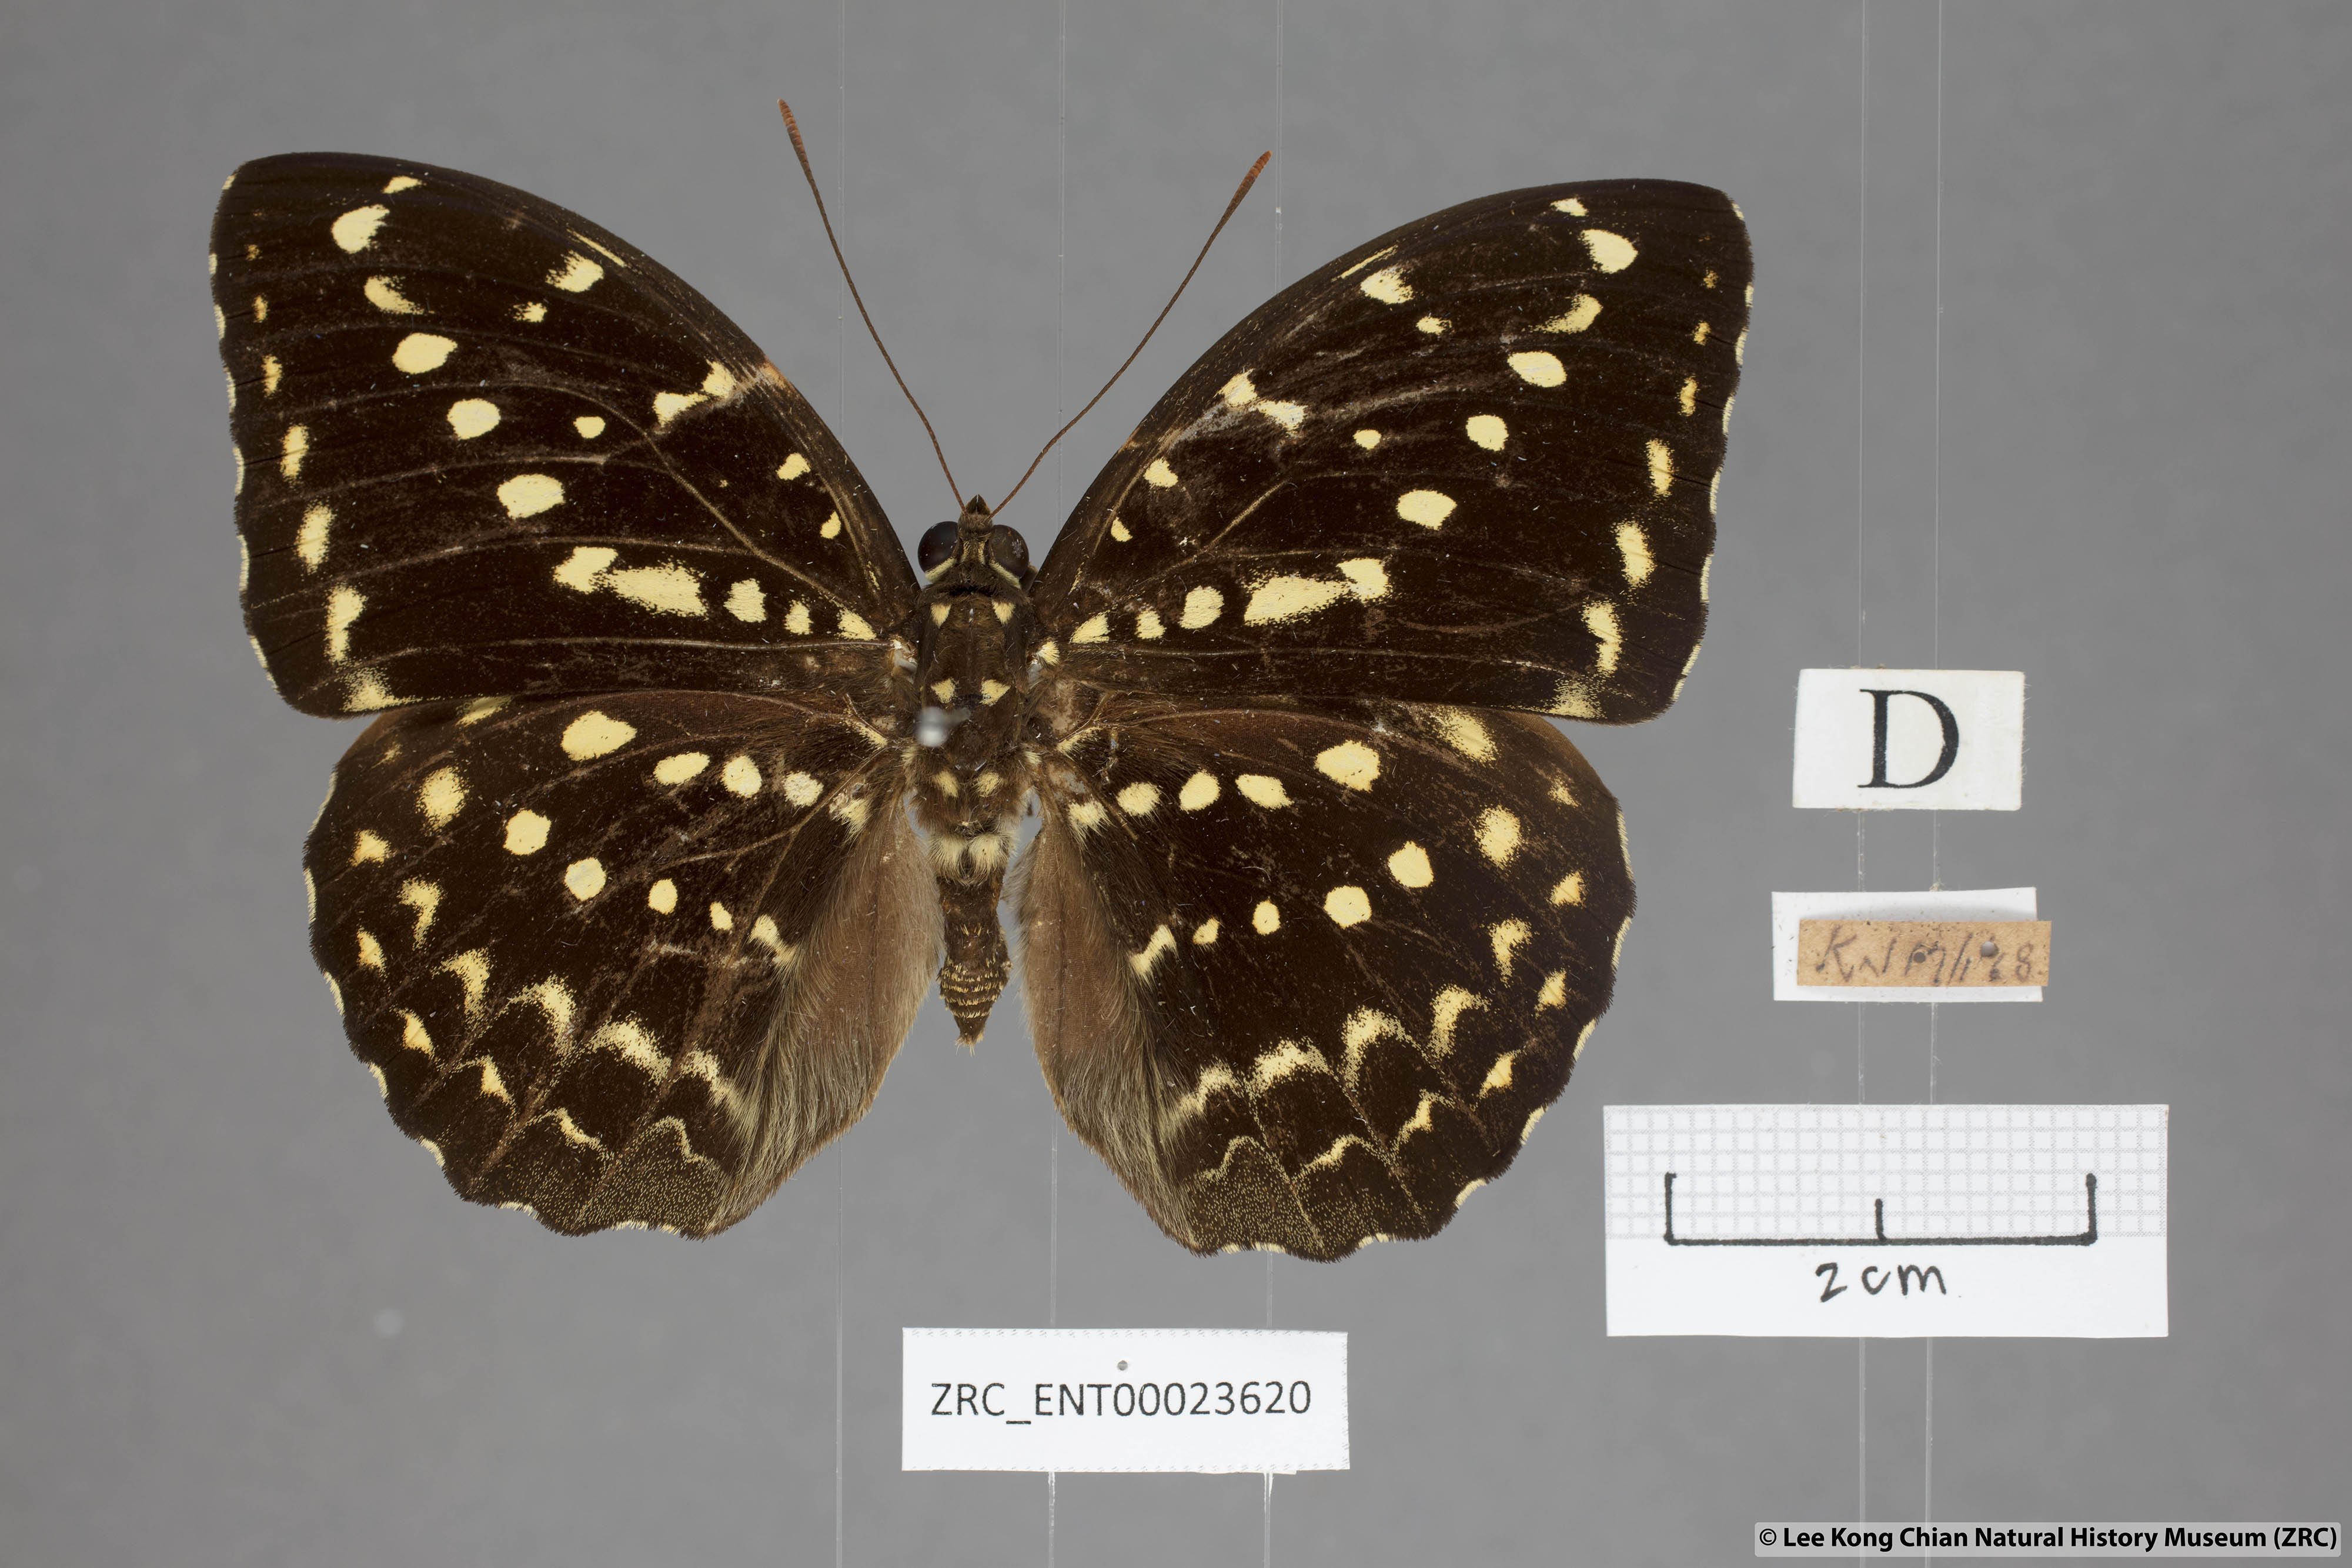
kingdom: Animalia
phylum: Arthropoda
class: Insecta
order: Lepidoptera
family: Nymphalidae
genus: Lexias
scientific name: Lexias canescens
